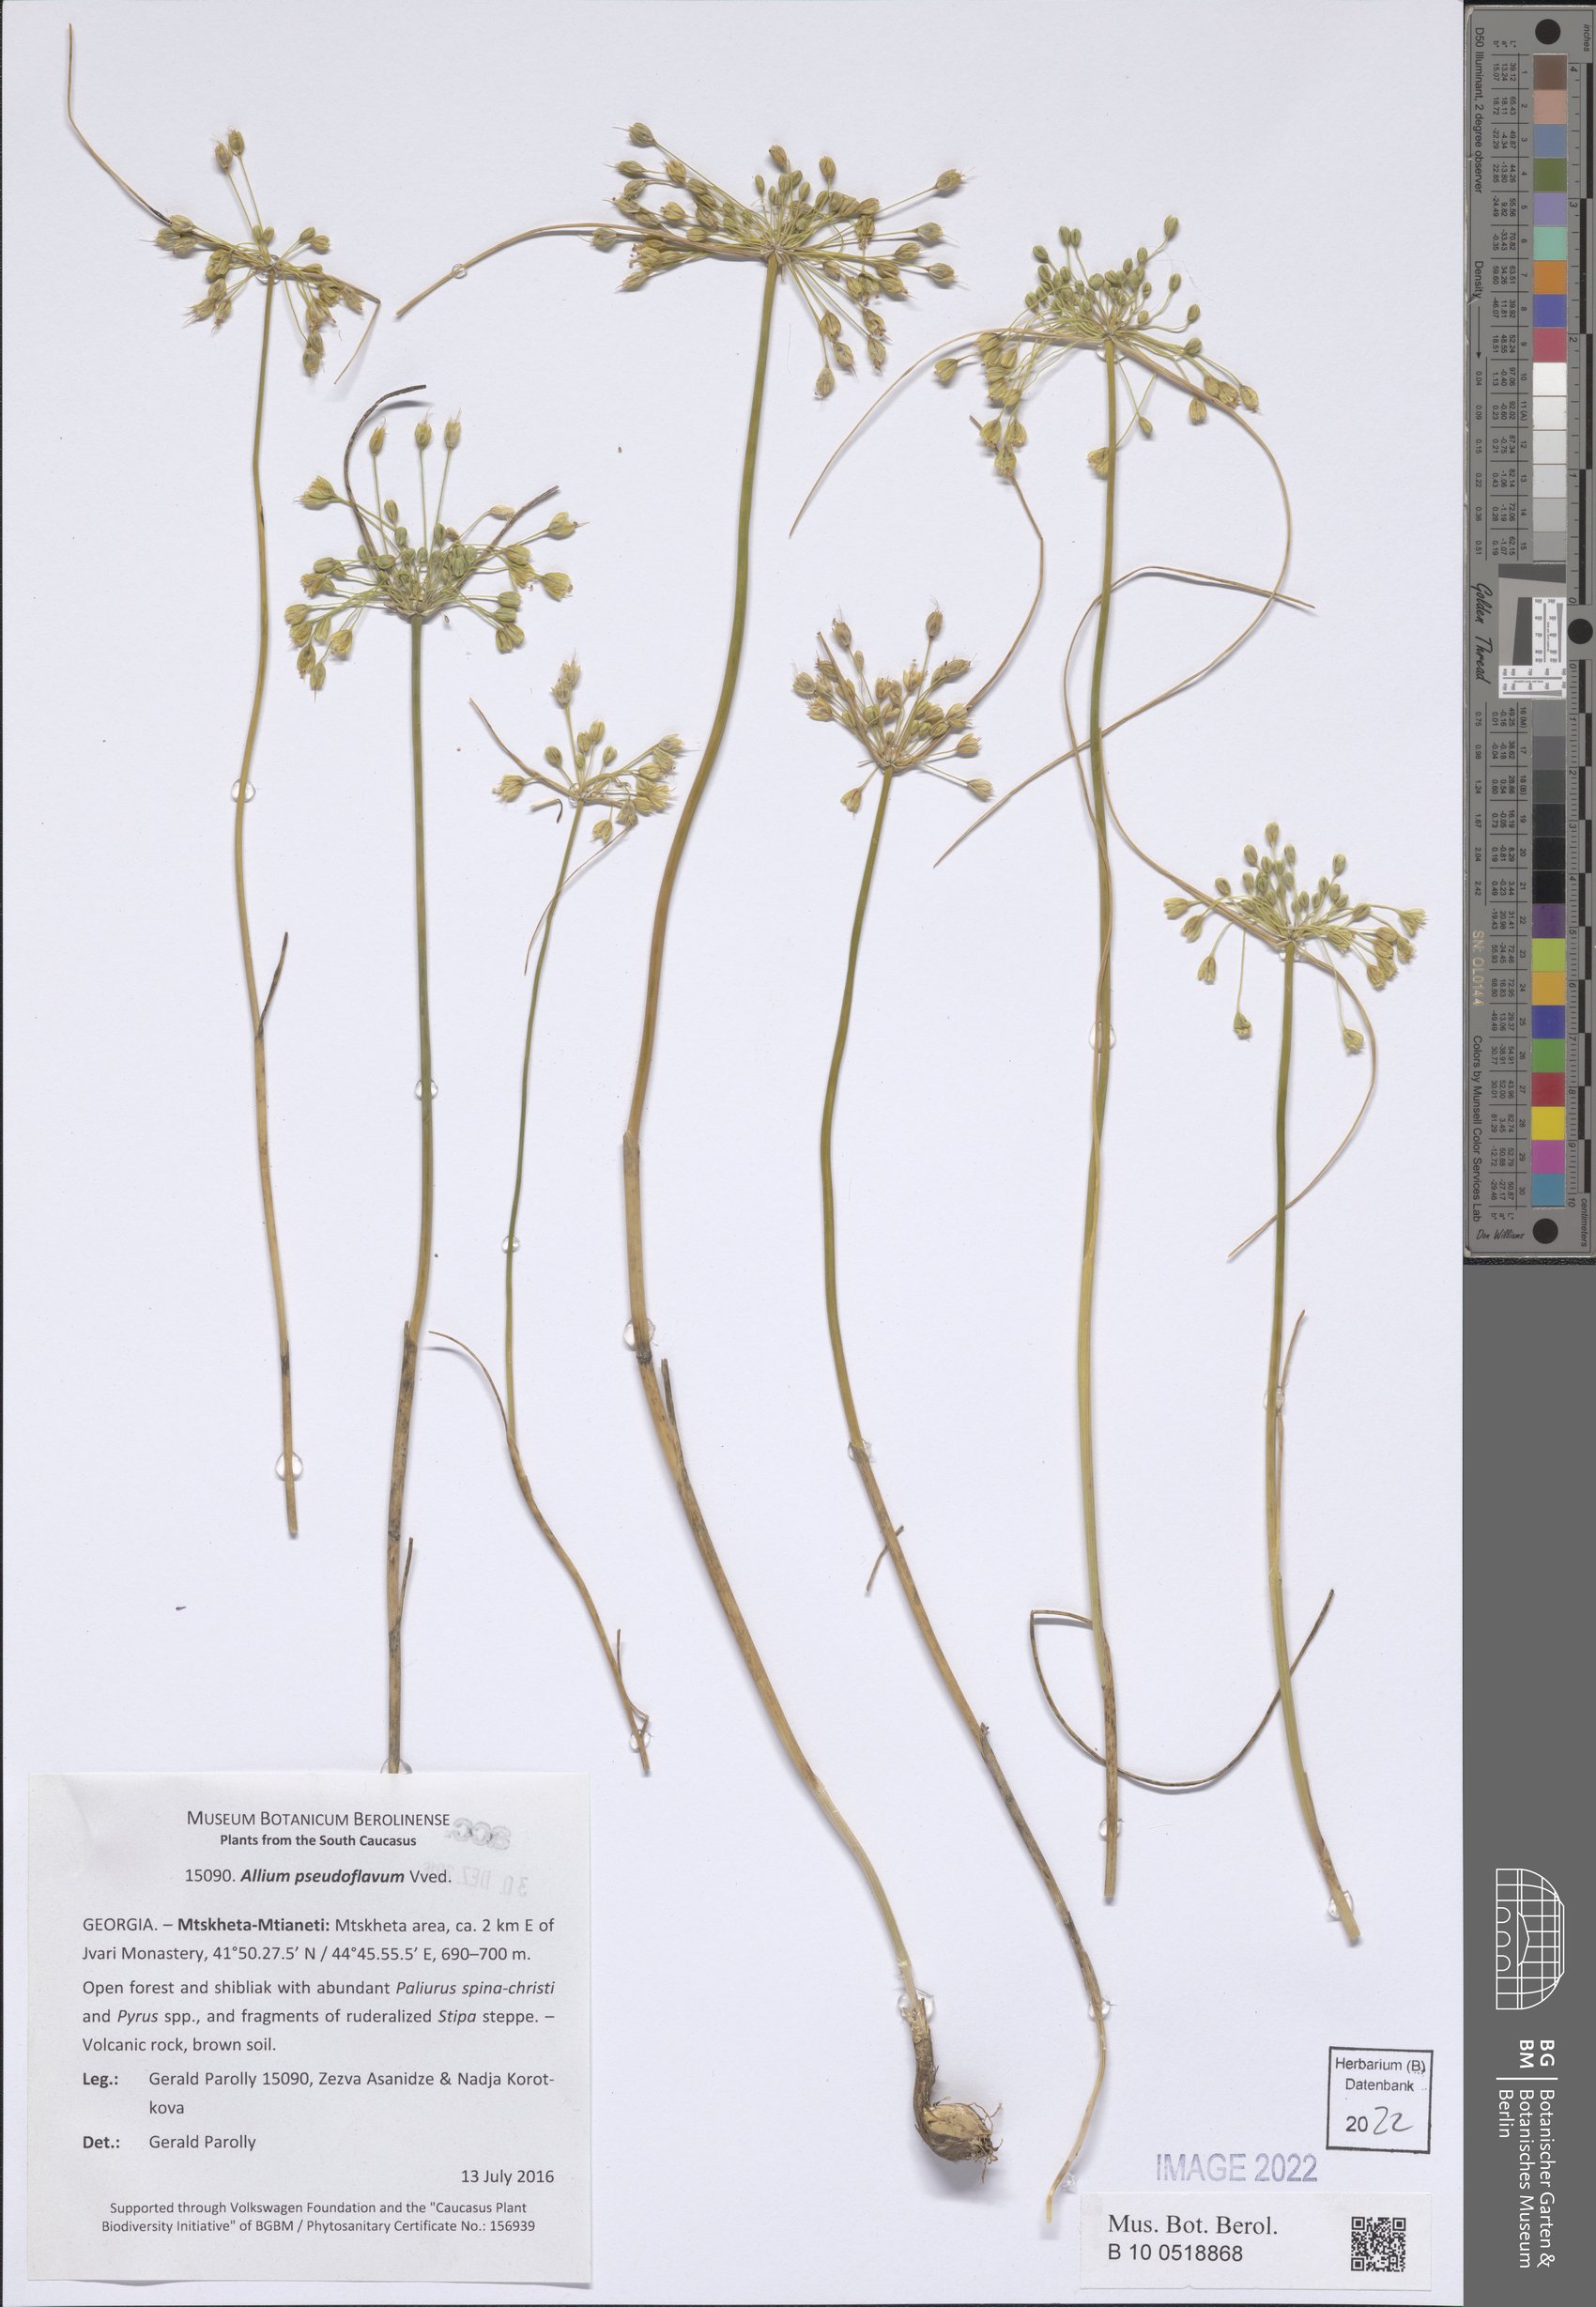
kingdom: Plantae
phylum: Tracheophyta
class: Liliopsida
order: Asparagales
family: Amaryllidaceae
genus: Allium
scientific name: Allium pseudoflavum
